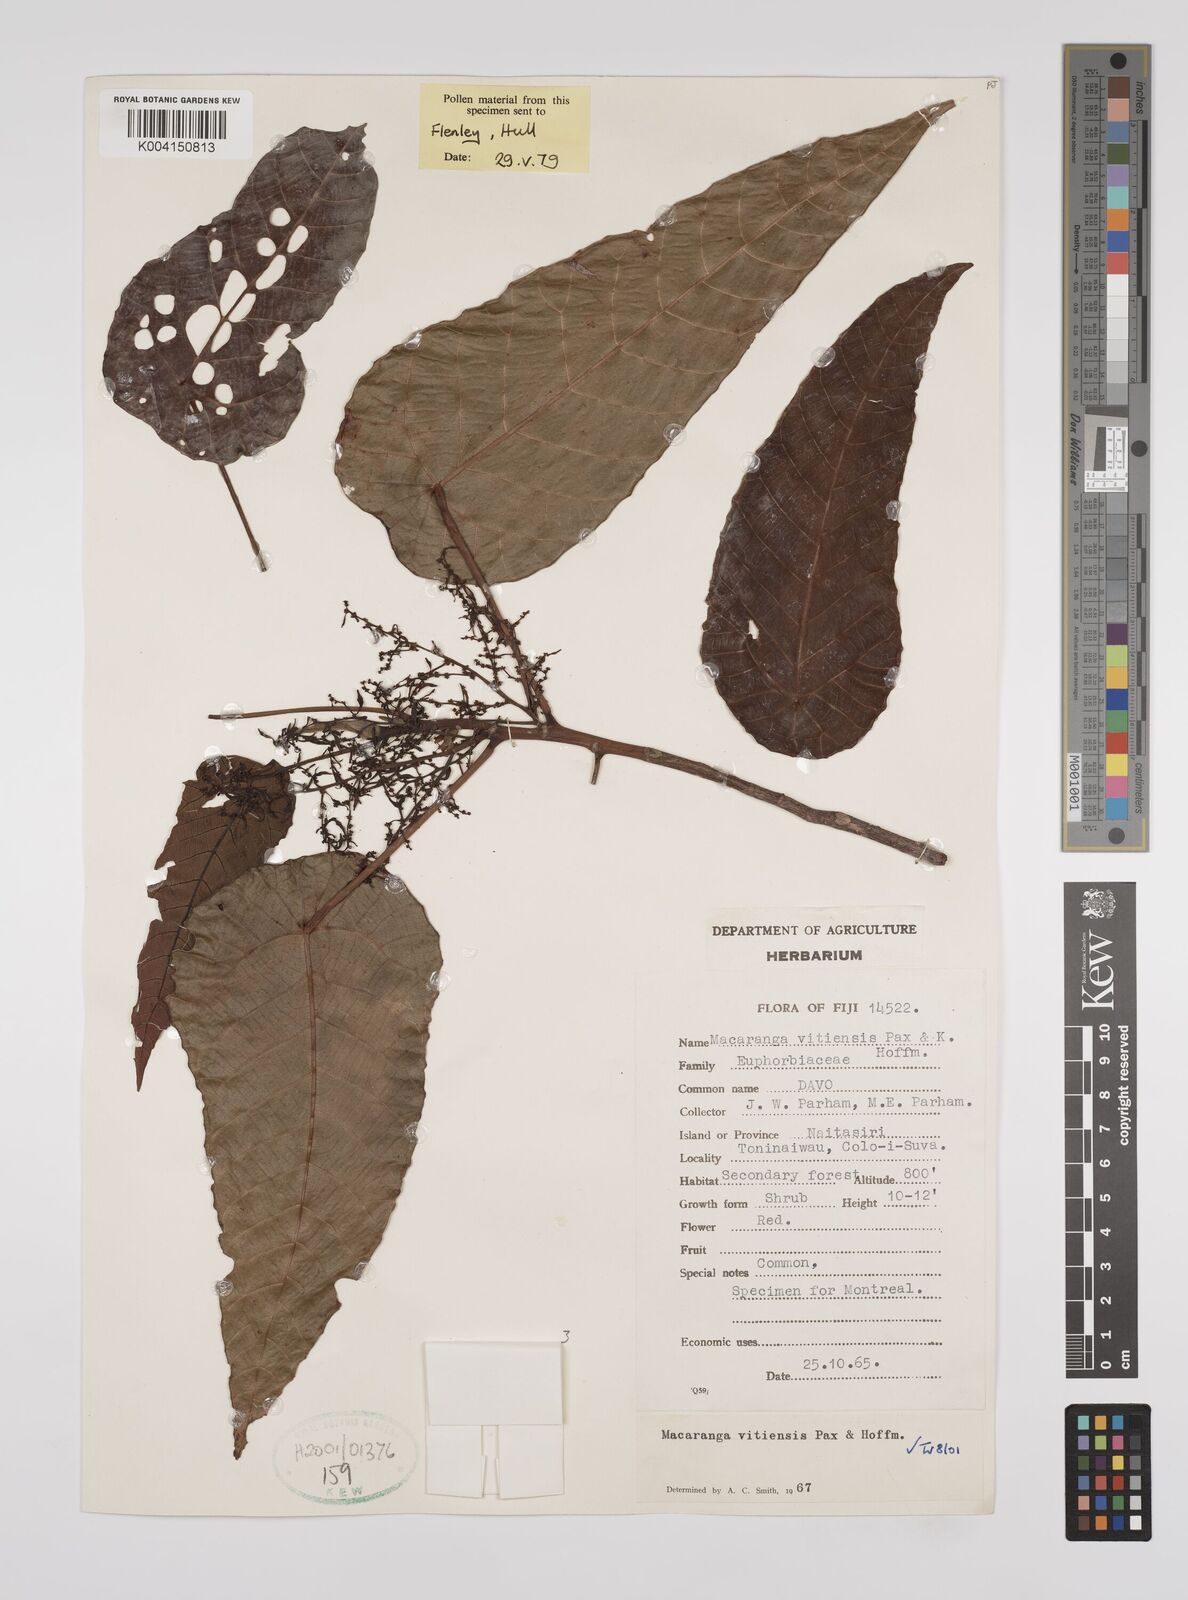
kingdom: Plantae
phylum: Tracheophyta
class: Magnoliopsida
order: Malpighiales
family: Euphorbiaceae
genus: Macaranga
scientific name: Macaranga vitiensis
